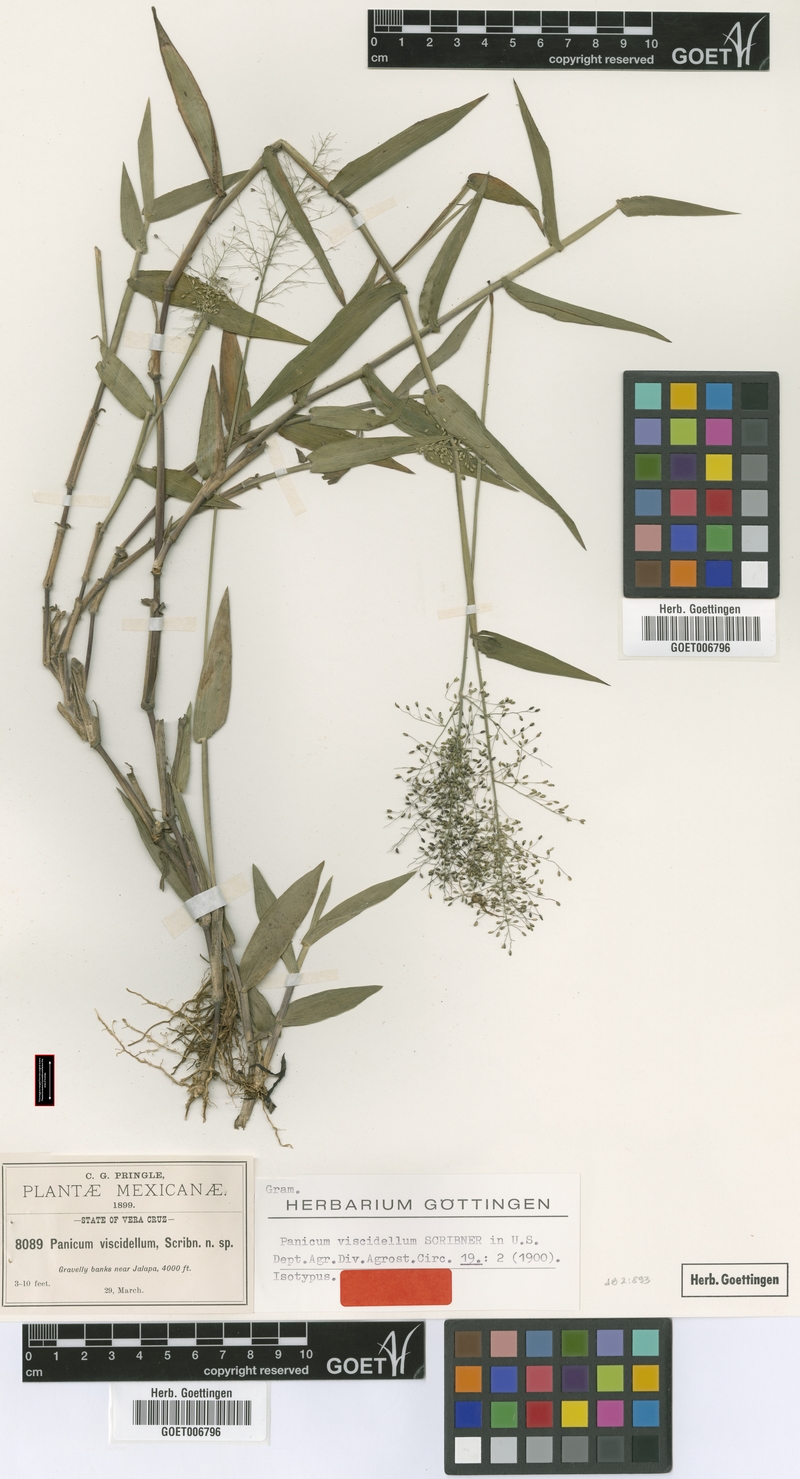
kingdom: Plantae
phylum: Tracheophyta
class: Liliopsida
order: Poales
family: Poaceae
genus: Dichanthelium
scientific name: Dichanthelium viscidellum
